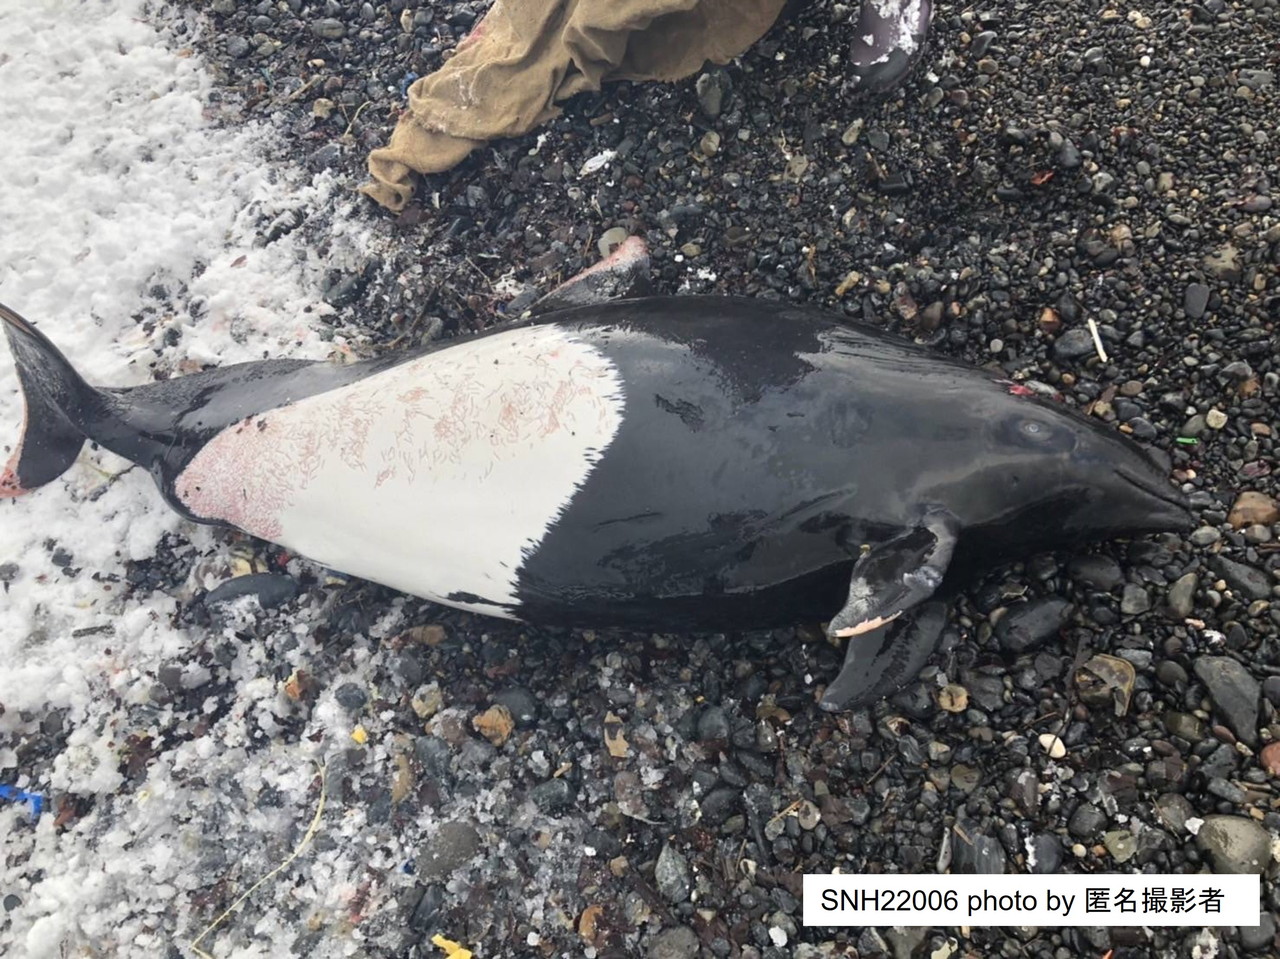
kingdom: Animalia
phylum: Chordata
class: Mammalia
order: Cetacea
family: Phocoenidae
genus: Phocoenoides
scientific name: Phocoenoides dalli
